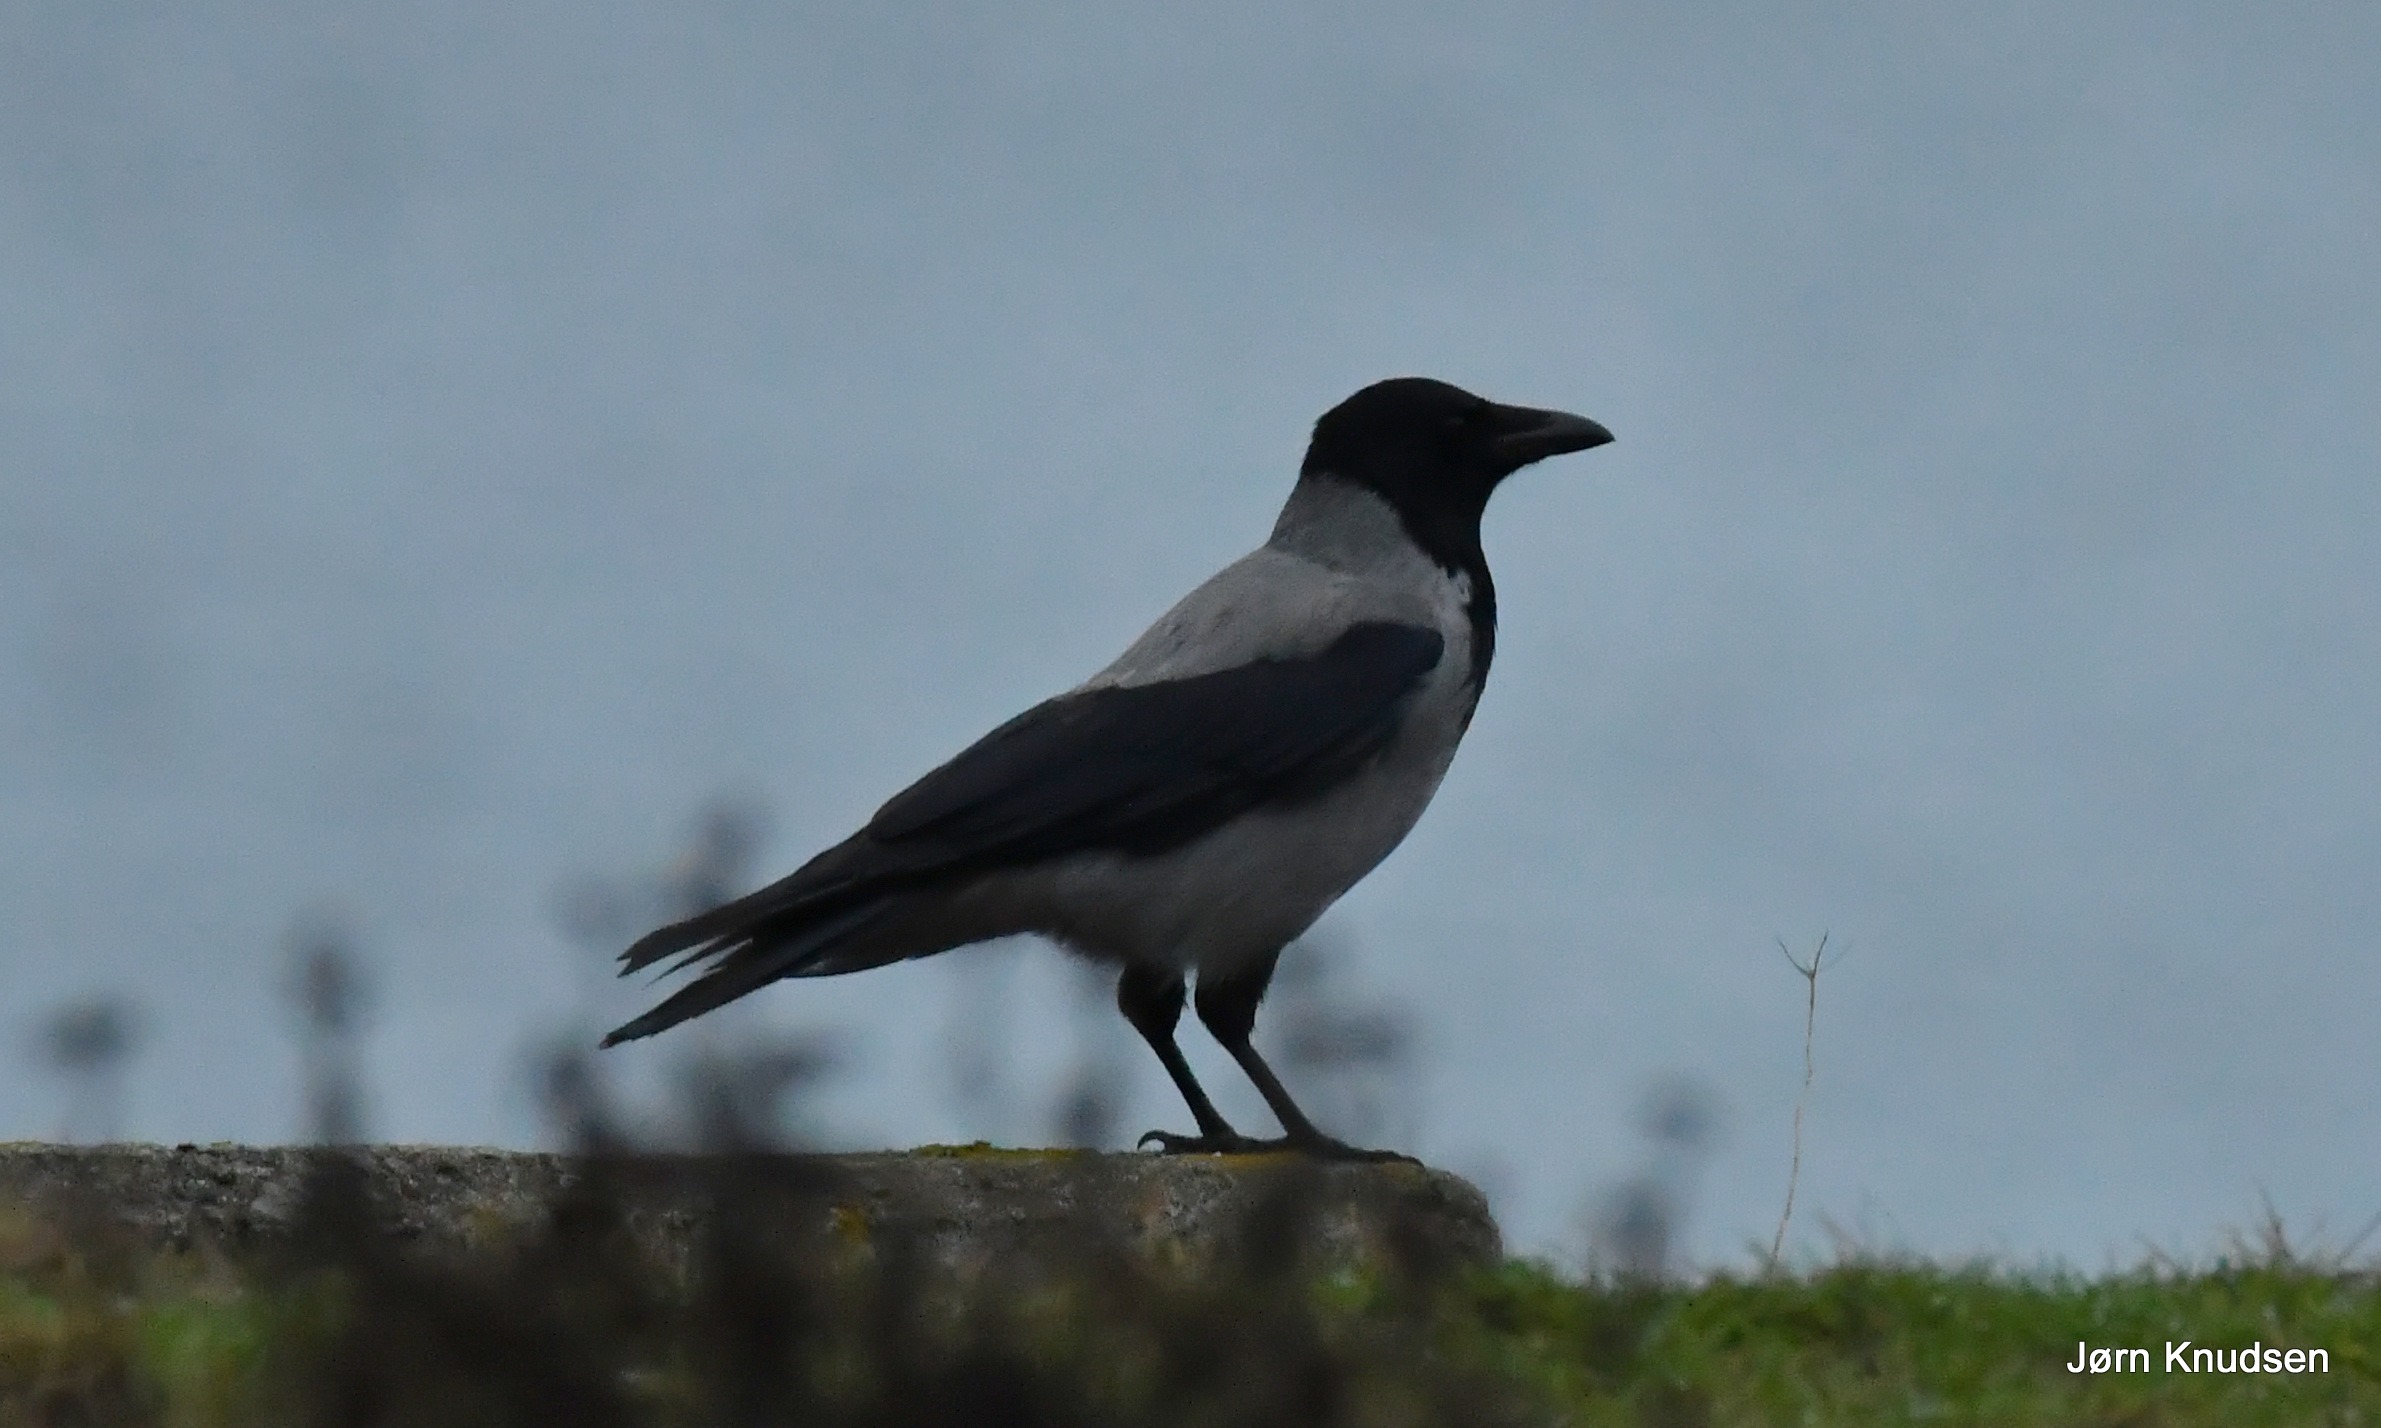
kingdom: Animalia
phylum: Chordata
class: Aves
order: Passeriformes
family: Corvidae
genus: Corvus
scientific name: Corvus cornix
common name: Gråkrage
